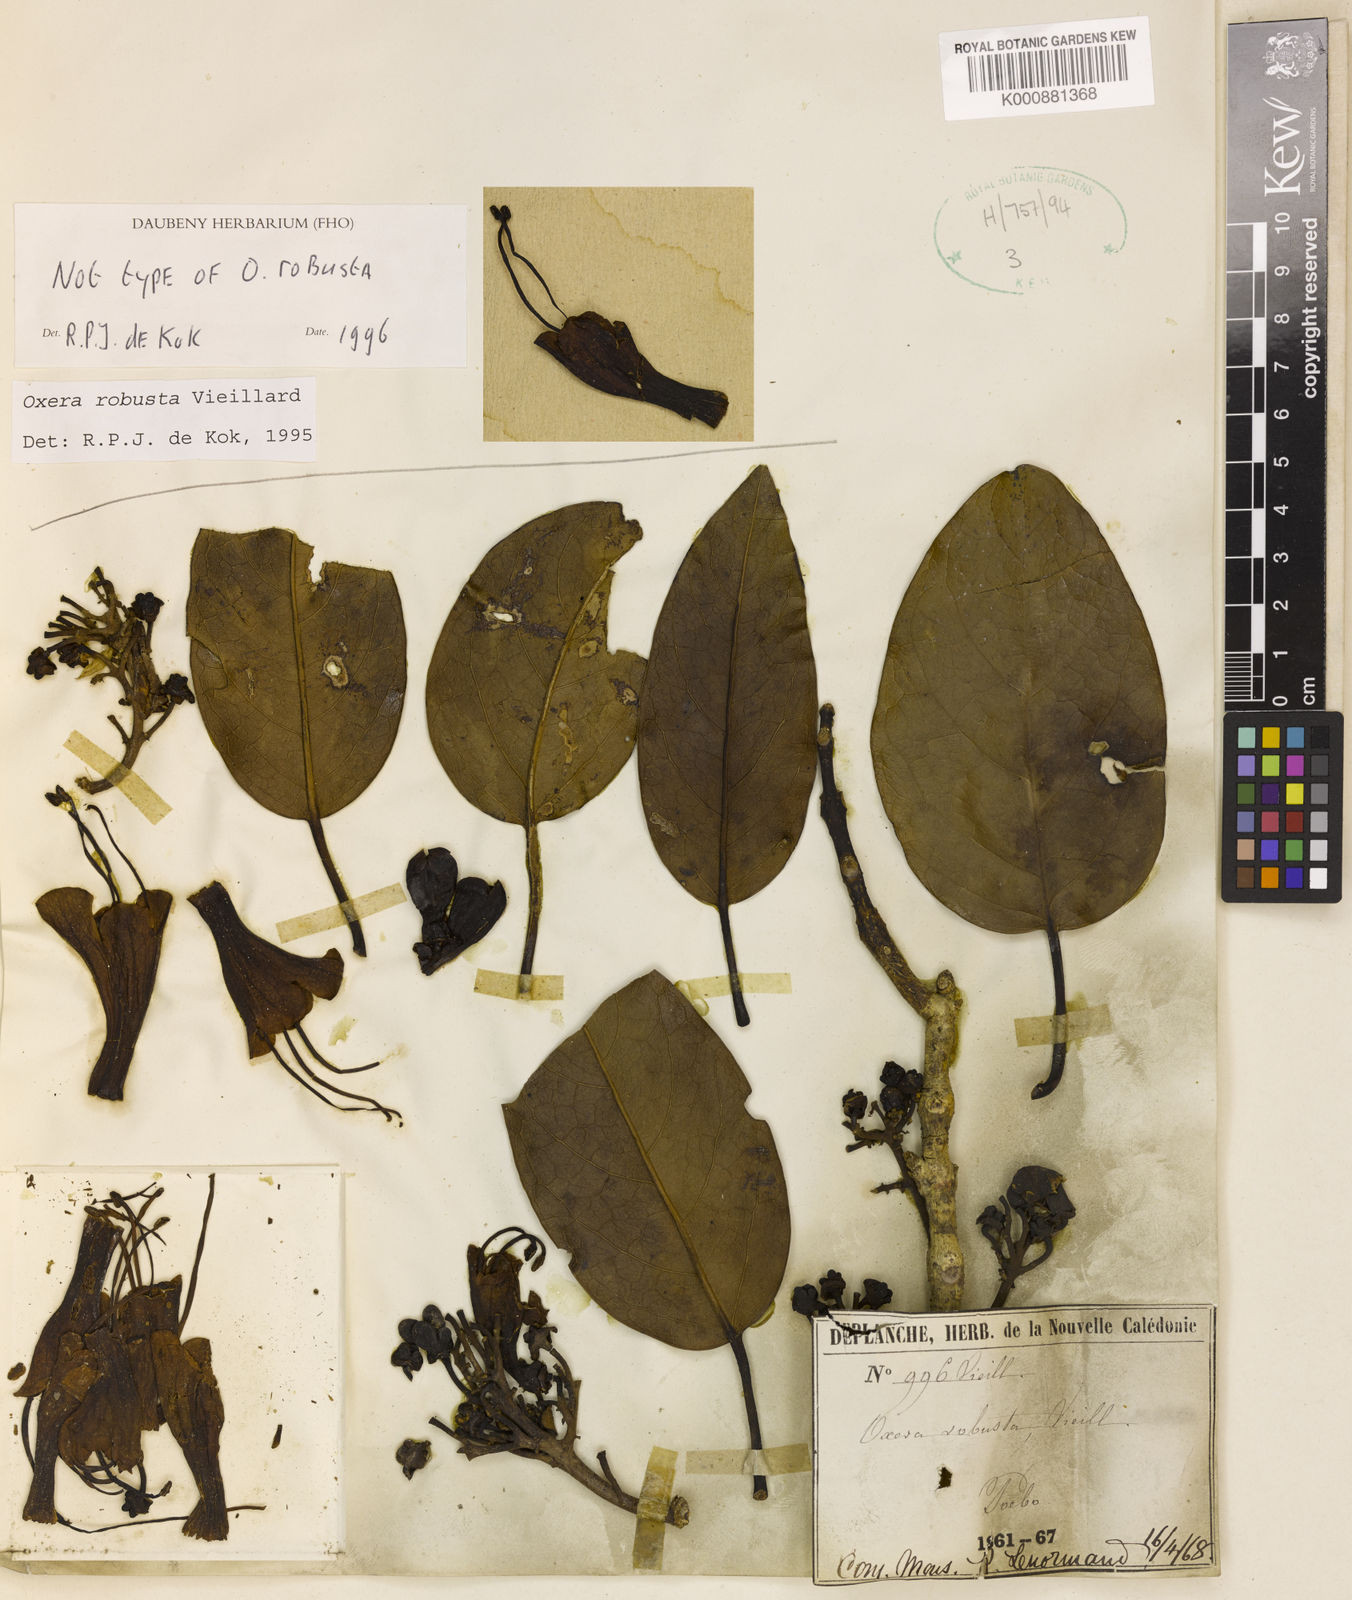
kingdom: Plantae
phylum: Tracheophyta
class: Magnoliopsida
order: Lamiales
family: Lamiaceae
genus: Oxera
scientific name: Oxera robusta
